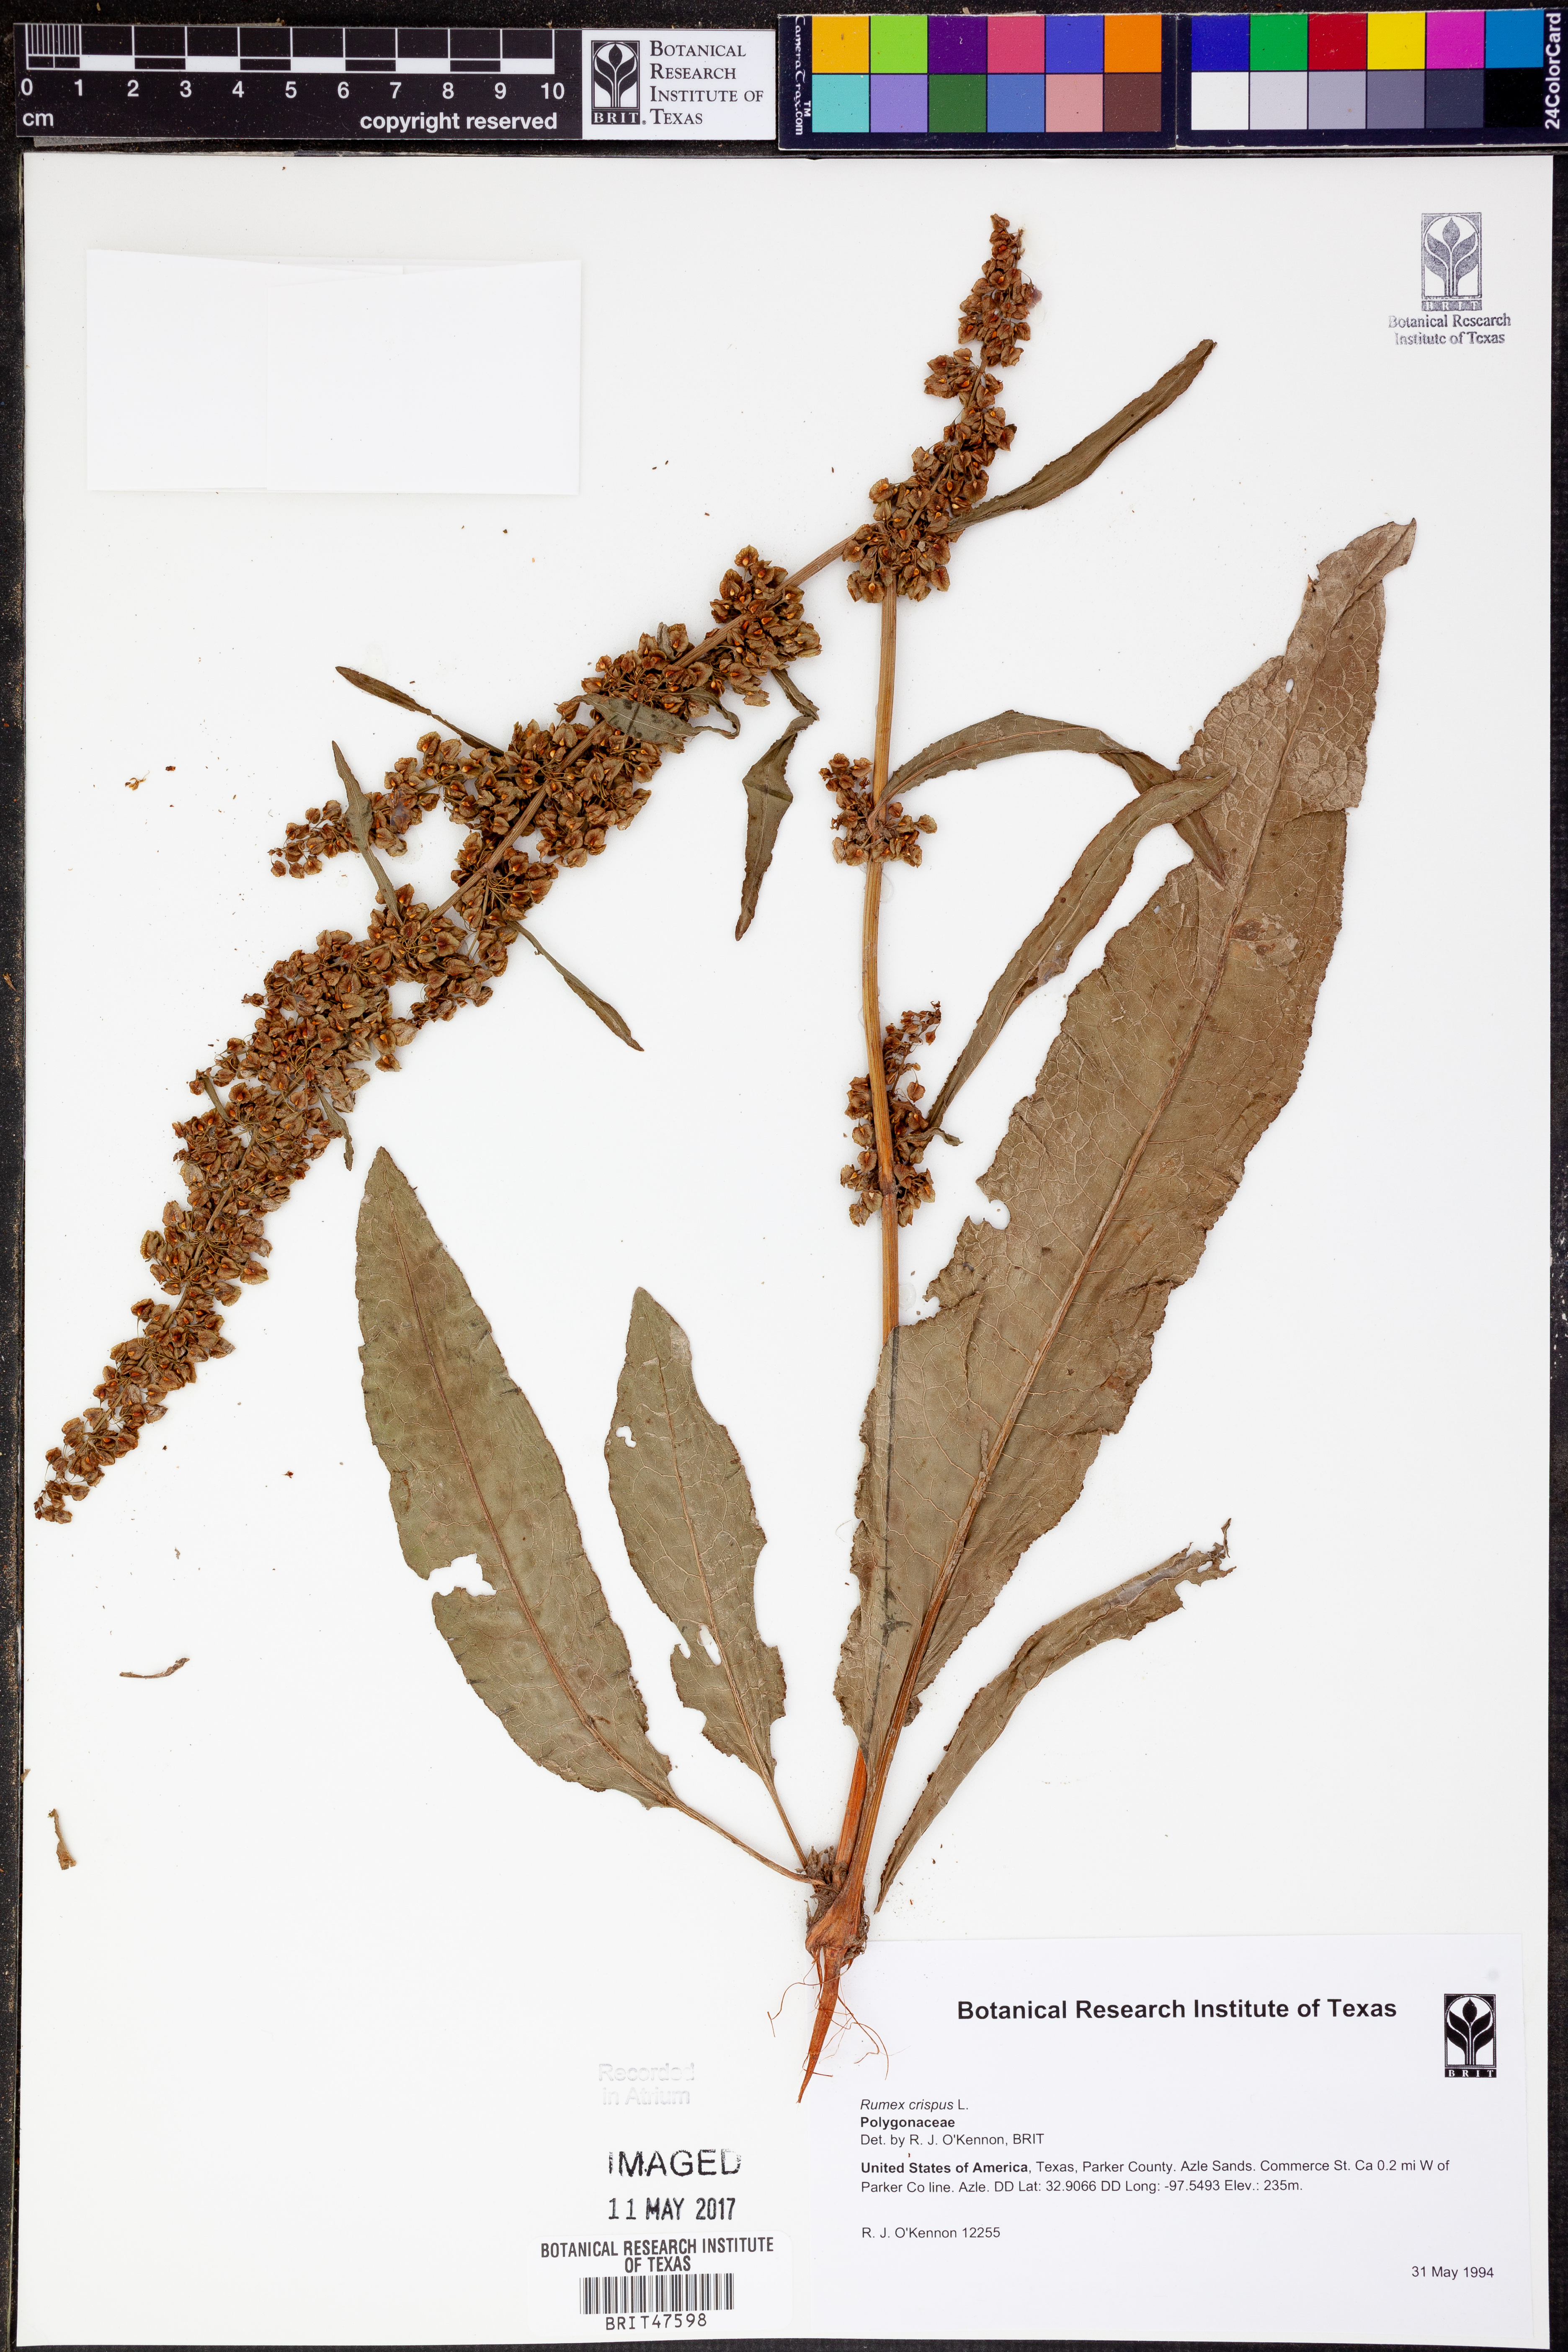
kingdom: Plantae
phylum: Tracheophyta
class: Magnoliopsida
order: Caryophyllales
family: Polygonaceae
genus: Rumex
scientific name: Rumex crispus
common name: Curled dock
